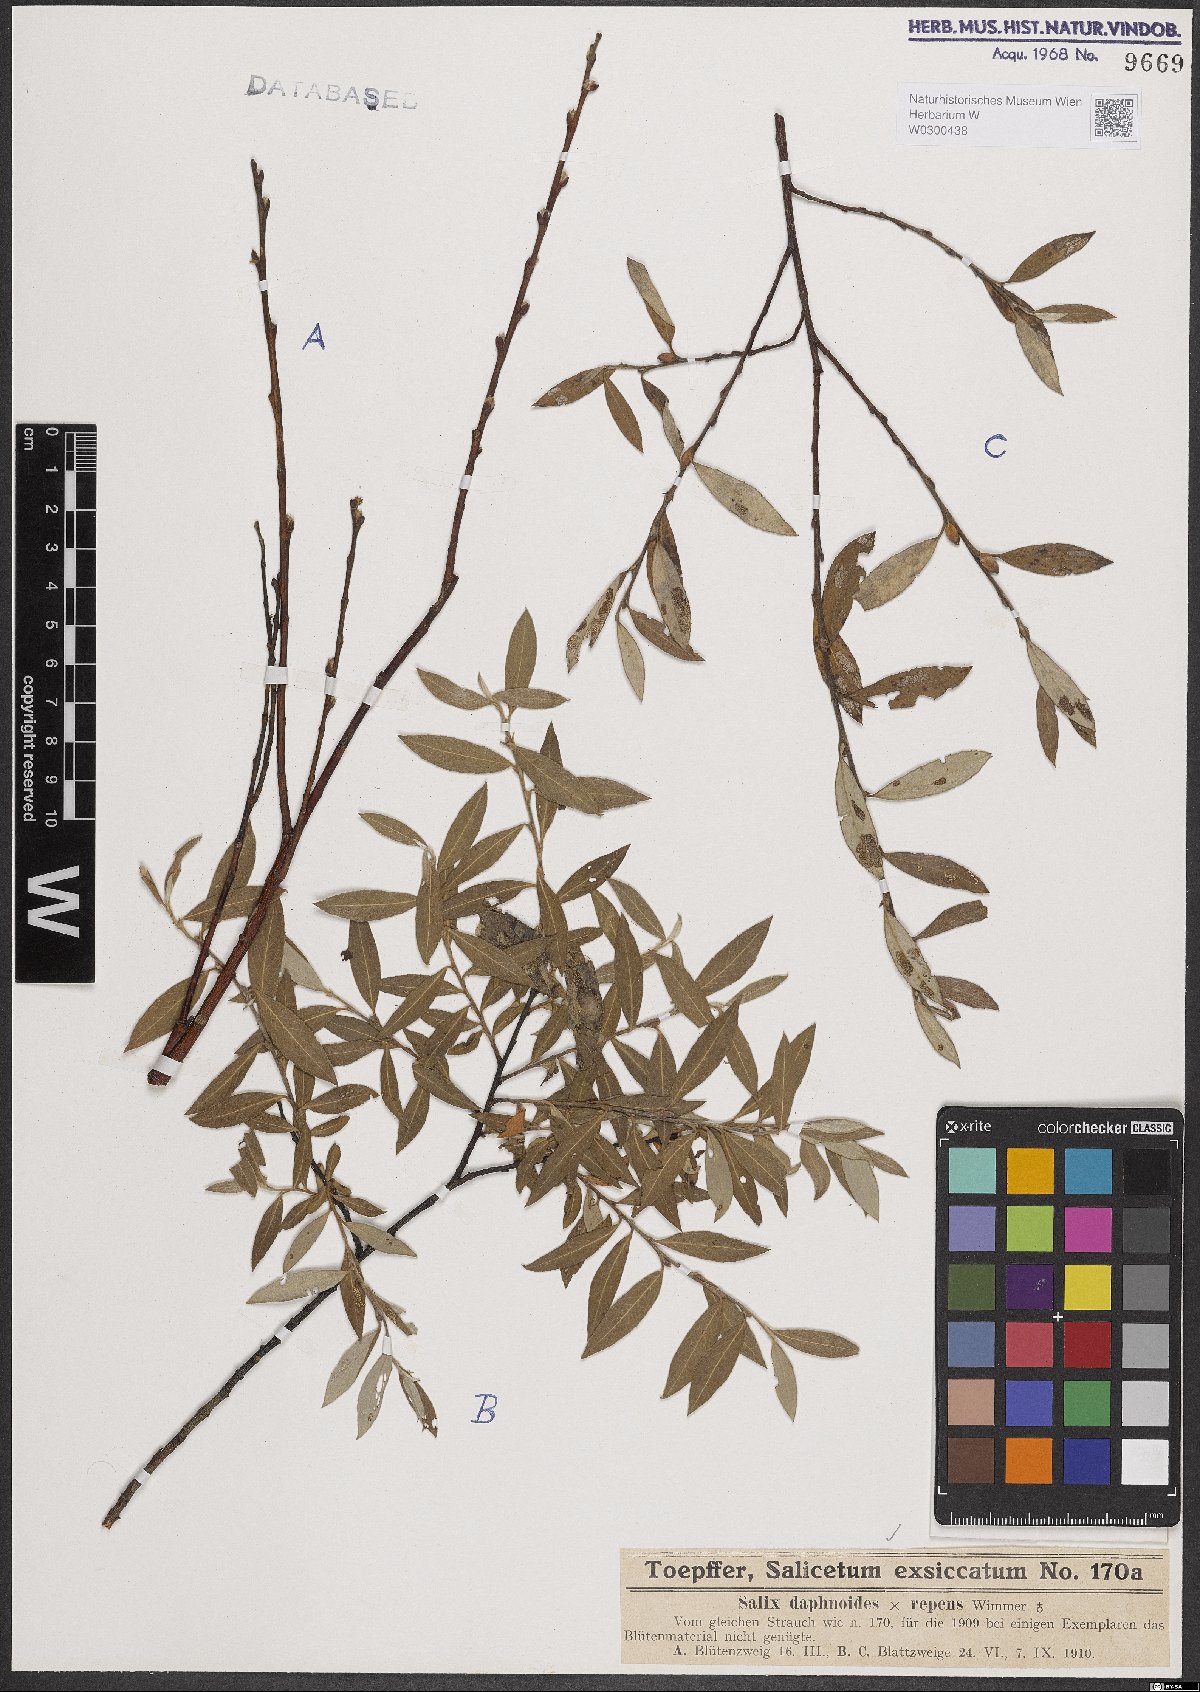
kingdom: Plantae
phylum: Tracheophyta
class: Magnoliopsida
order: Malpighiales
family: Salicaceae
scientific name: Salicaceae
